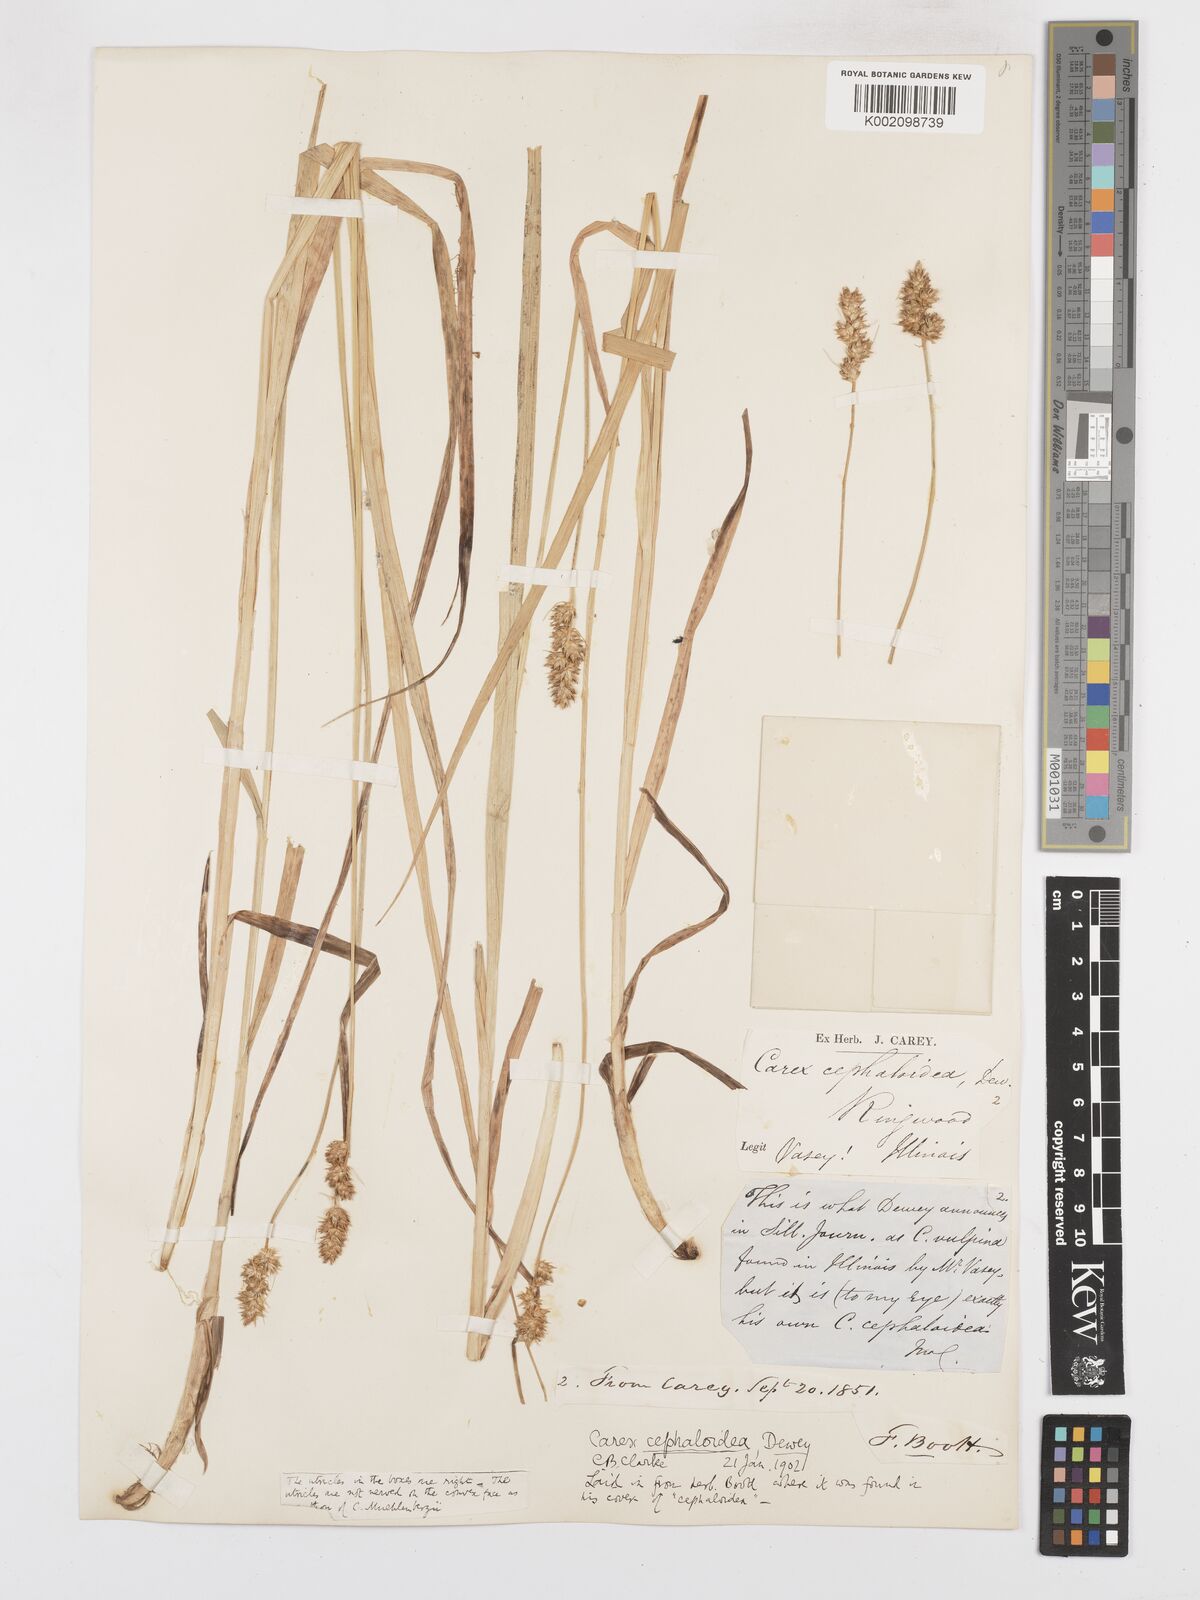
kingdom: Plantae
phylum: Tracheophyta
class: Liliopsida
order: Poales
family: Cyperaceae
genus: Carex
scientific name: Carex cephaloidea
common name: Thin-leaved sedge
